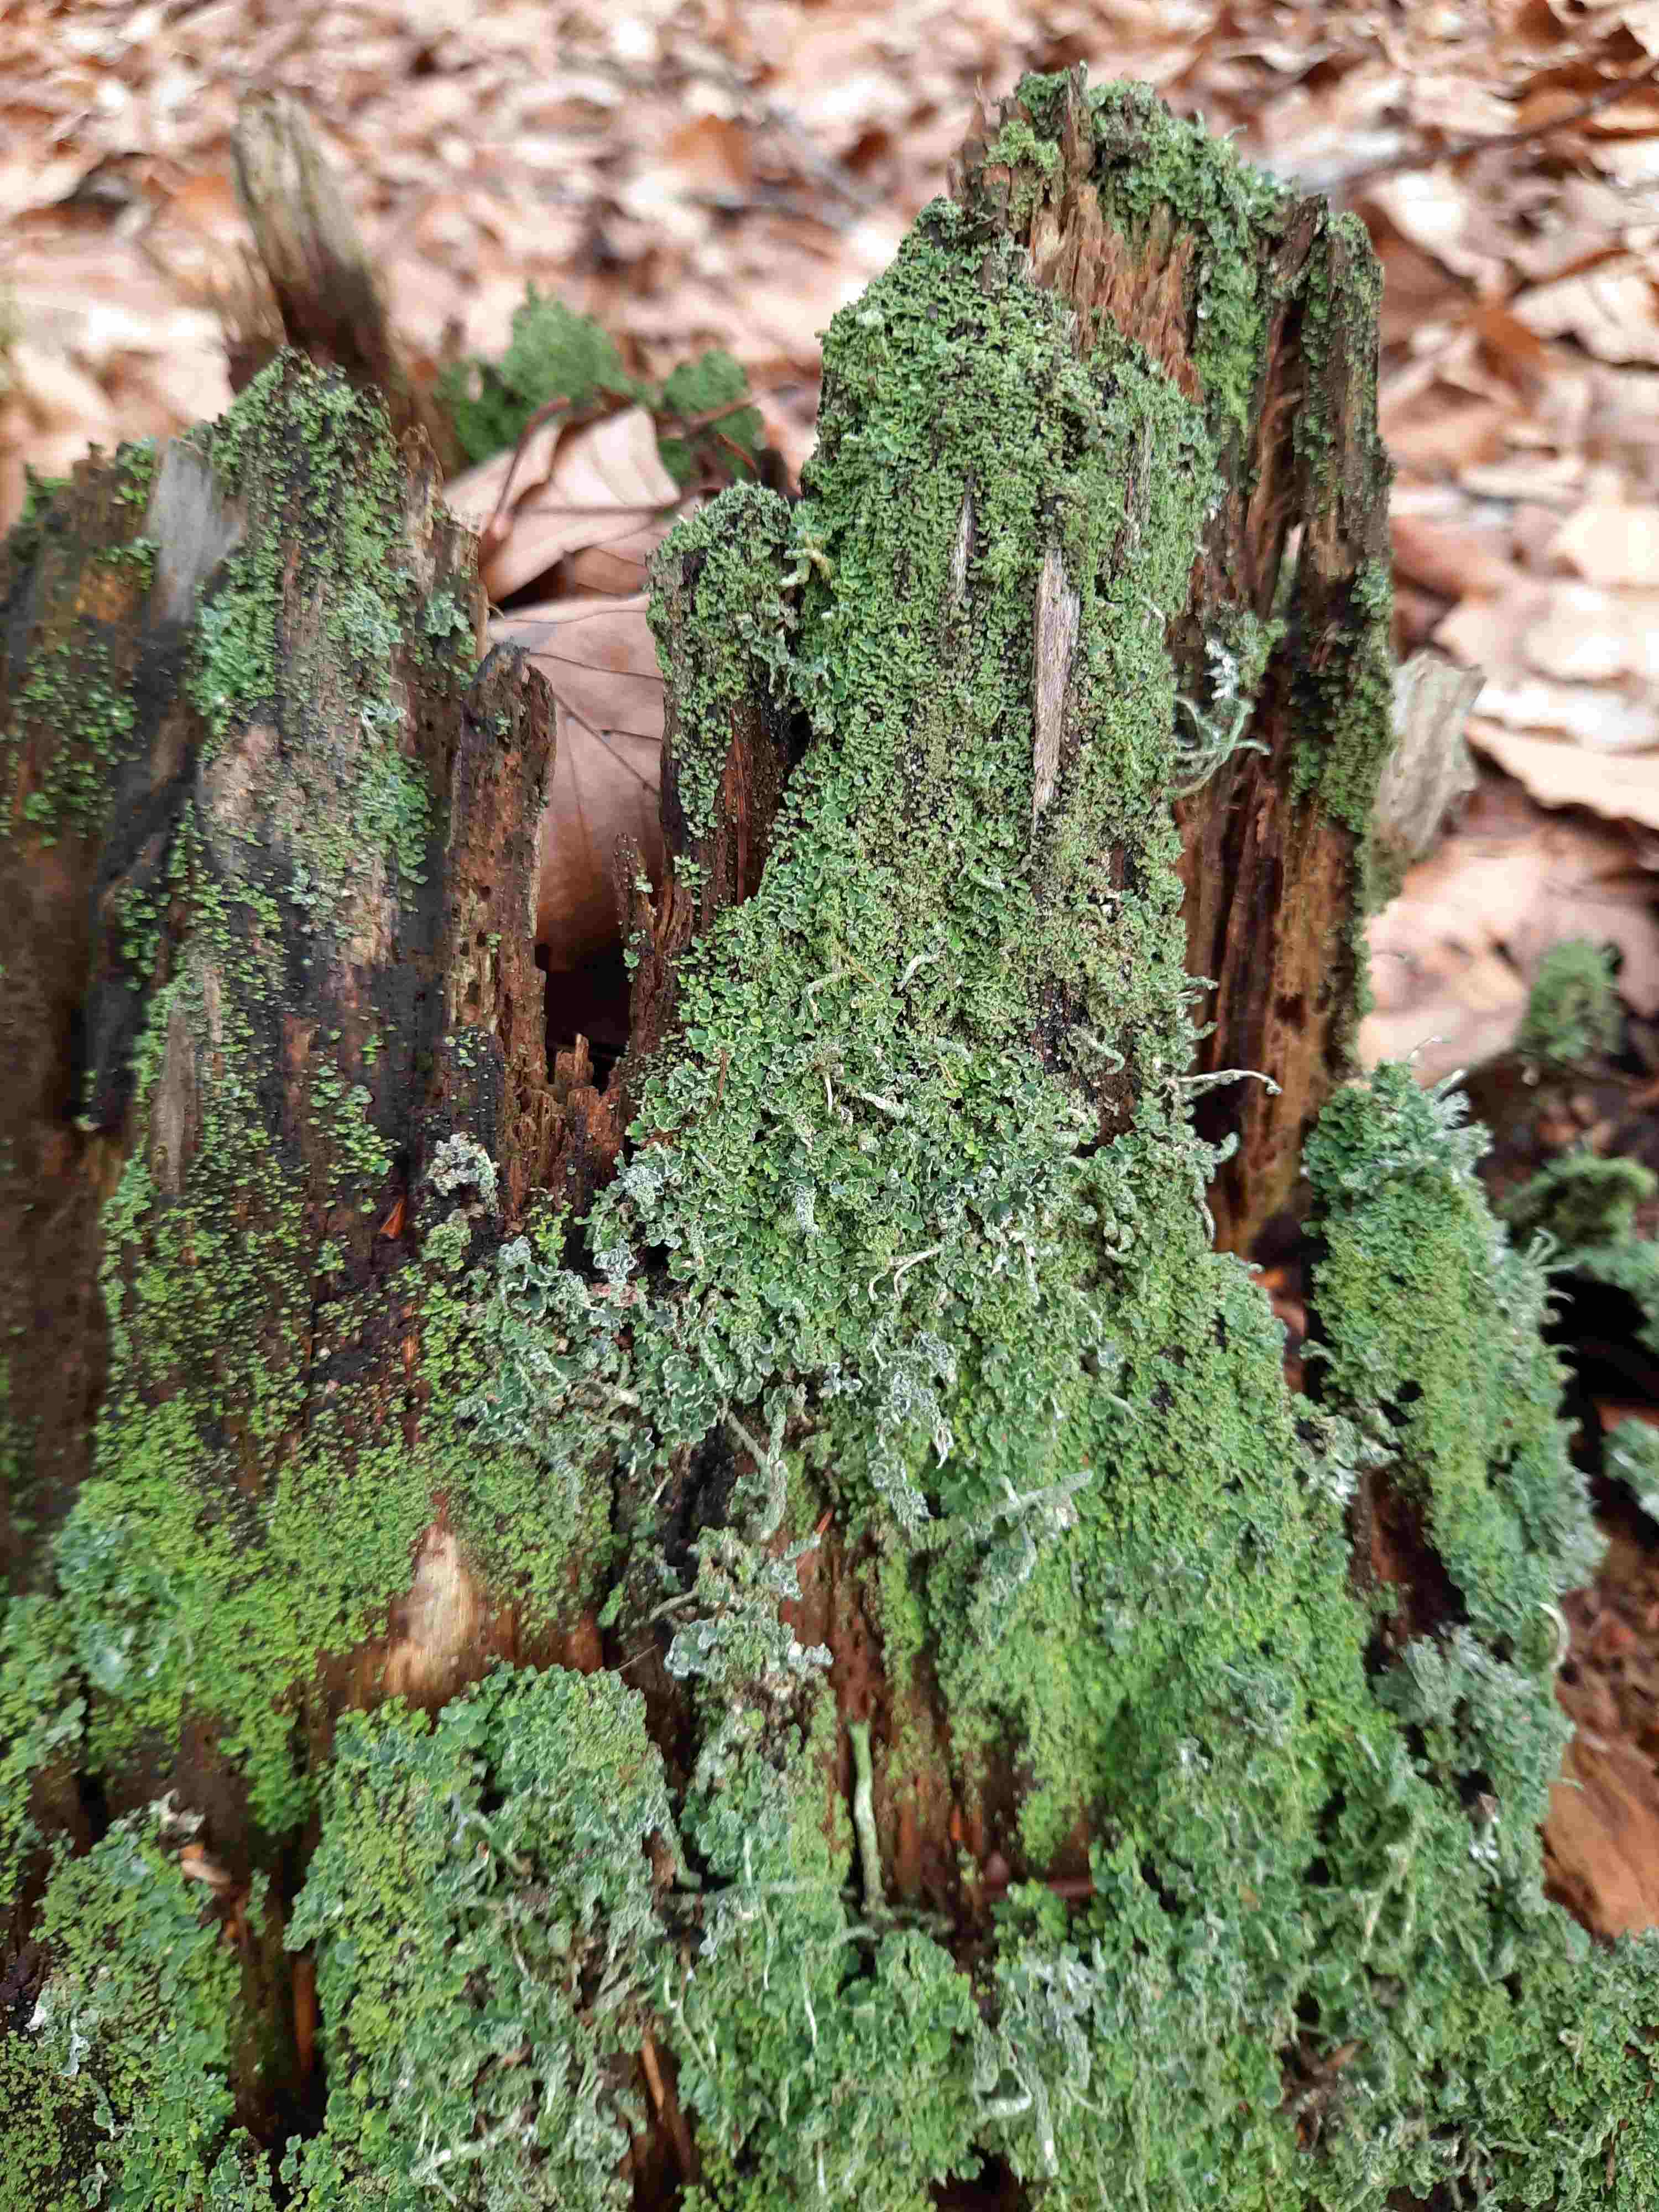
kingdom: Fungi
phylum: Ascomycota
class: Lecanoromycetes
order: Lecanorales
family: Cladoniaceae
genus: Cladonia
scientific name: Cladonia coniocraea
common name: træfods-bægerlav
